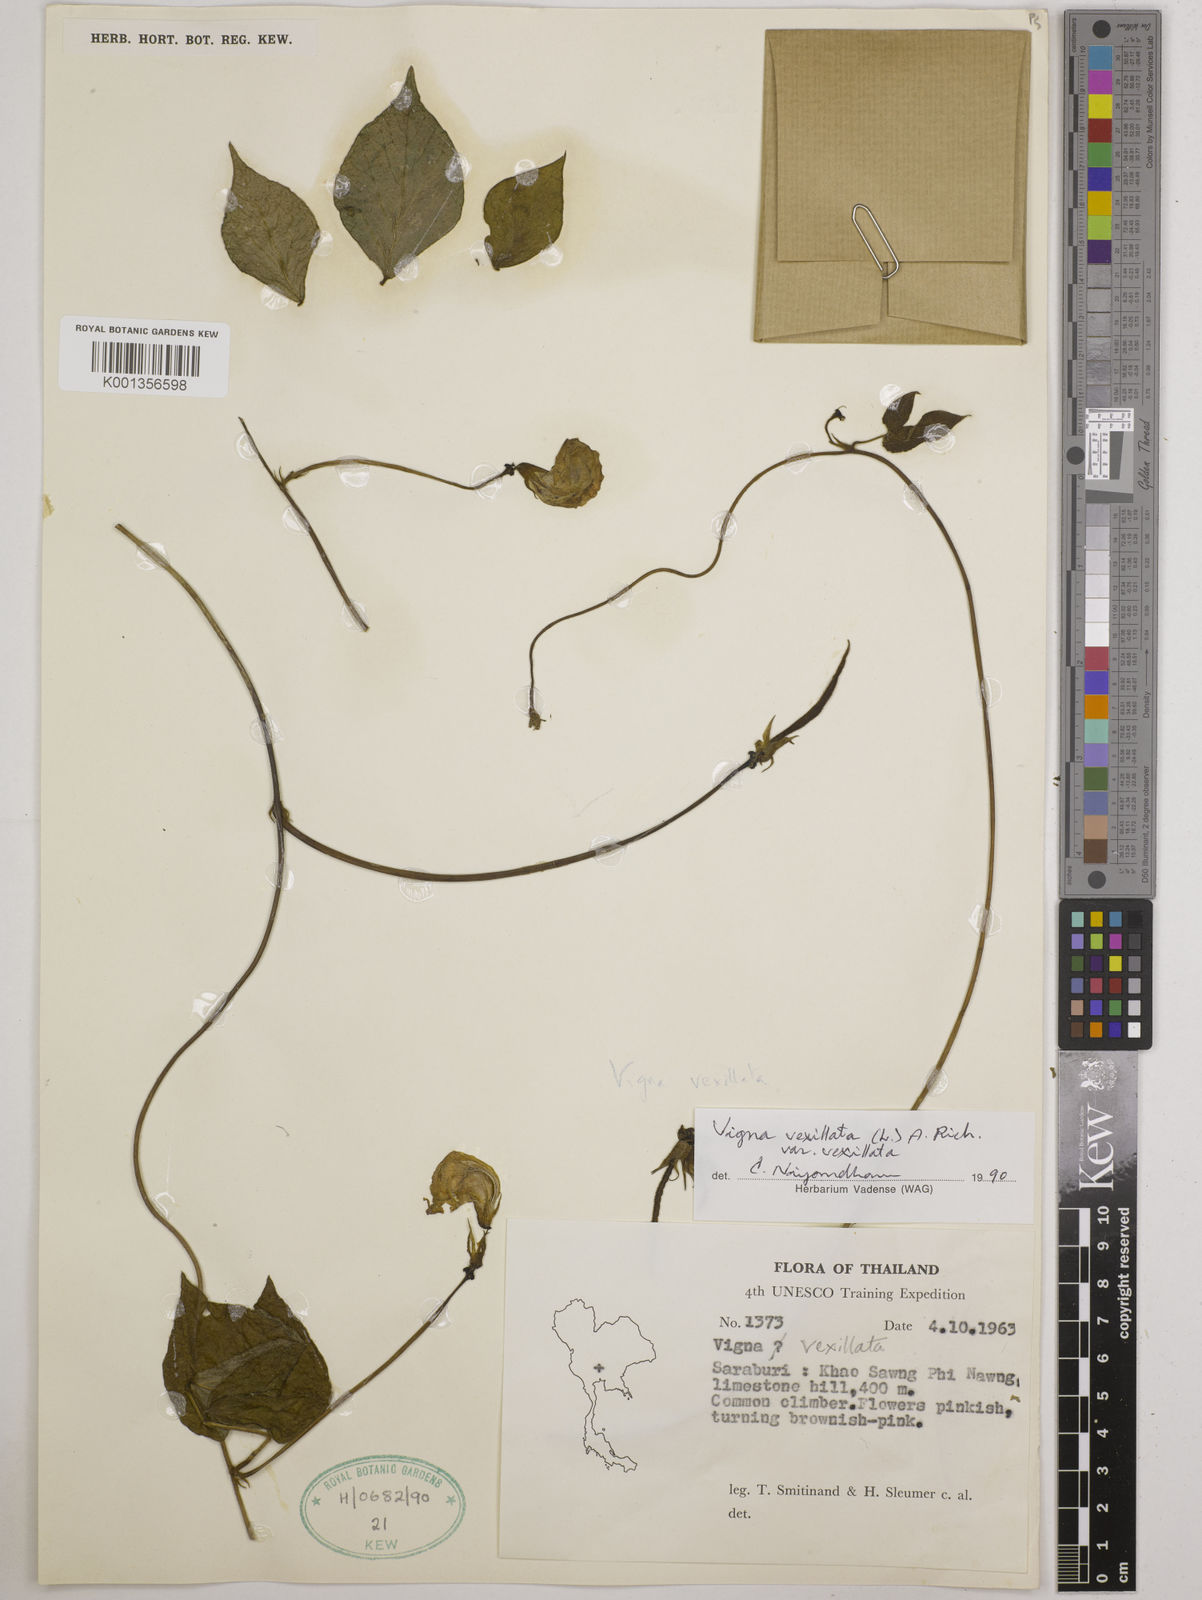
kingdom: Plantae
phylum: Tracheophyta
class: Magnoliopsida
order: Fabales
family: Fabaceae
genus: Vigna
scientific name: Vigna vexillata
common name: Zombi pea
